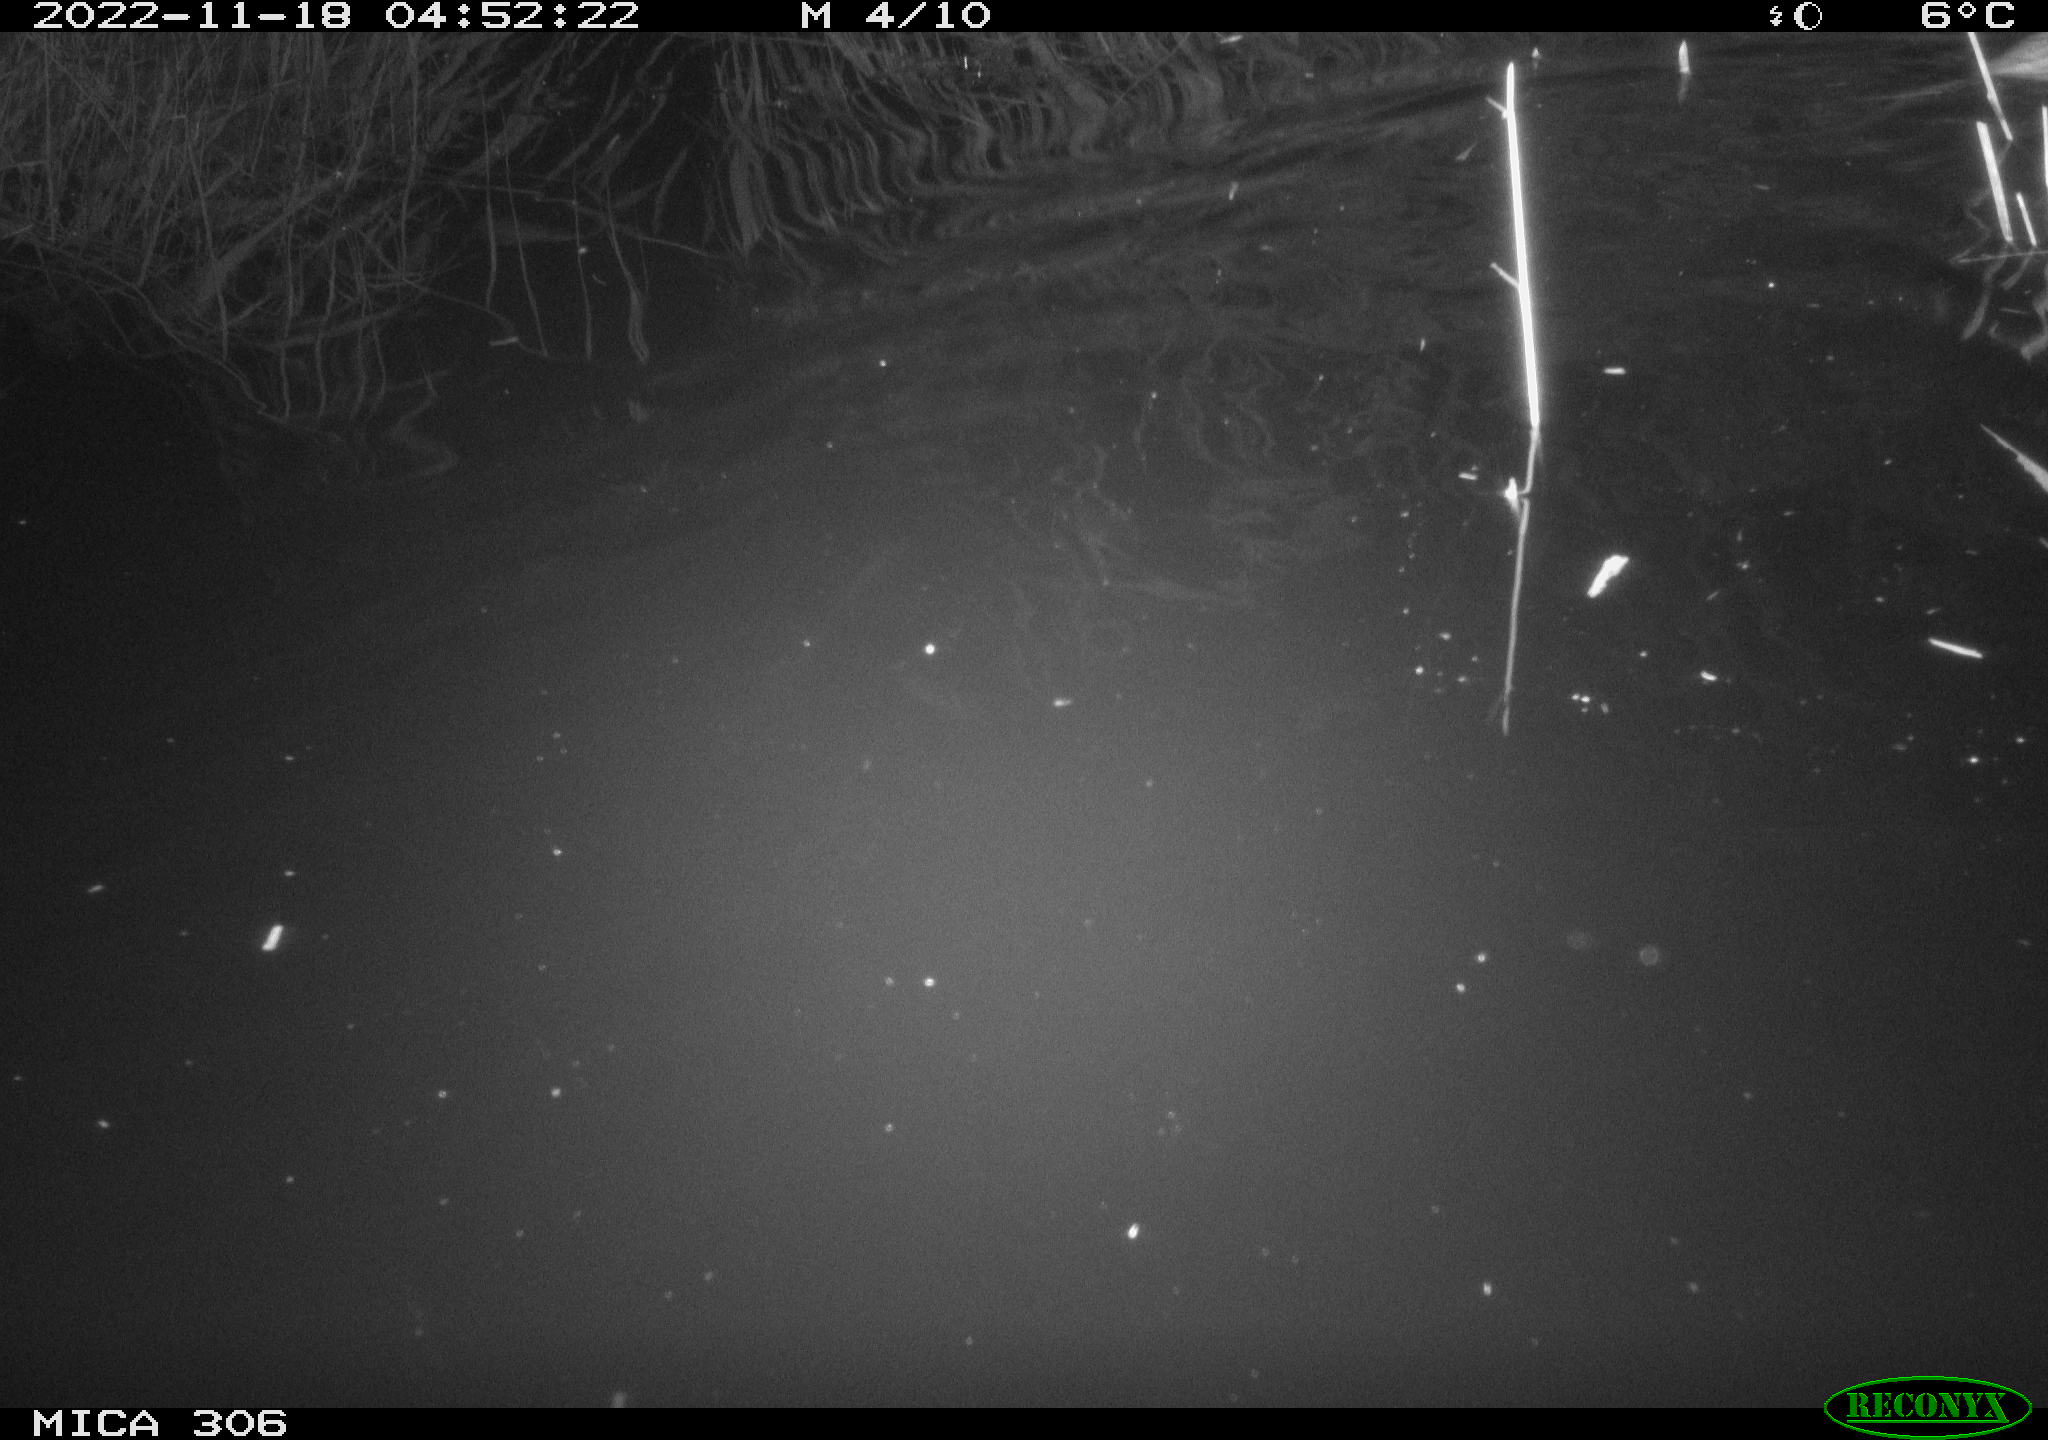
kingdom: Animalia
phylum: Chordata
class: Mammalia
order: Rodentia
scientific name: Rodentia
